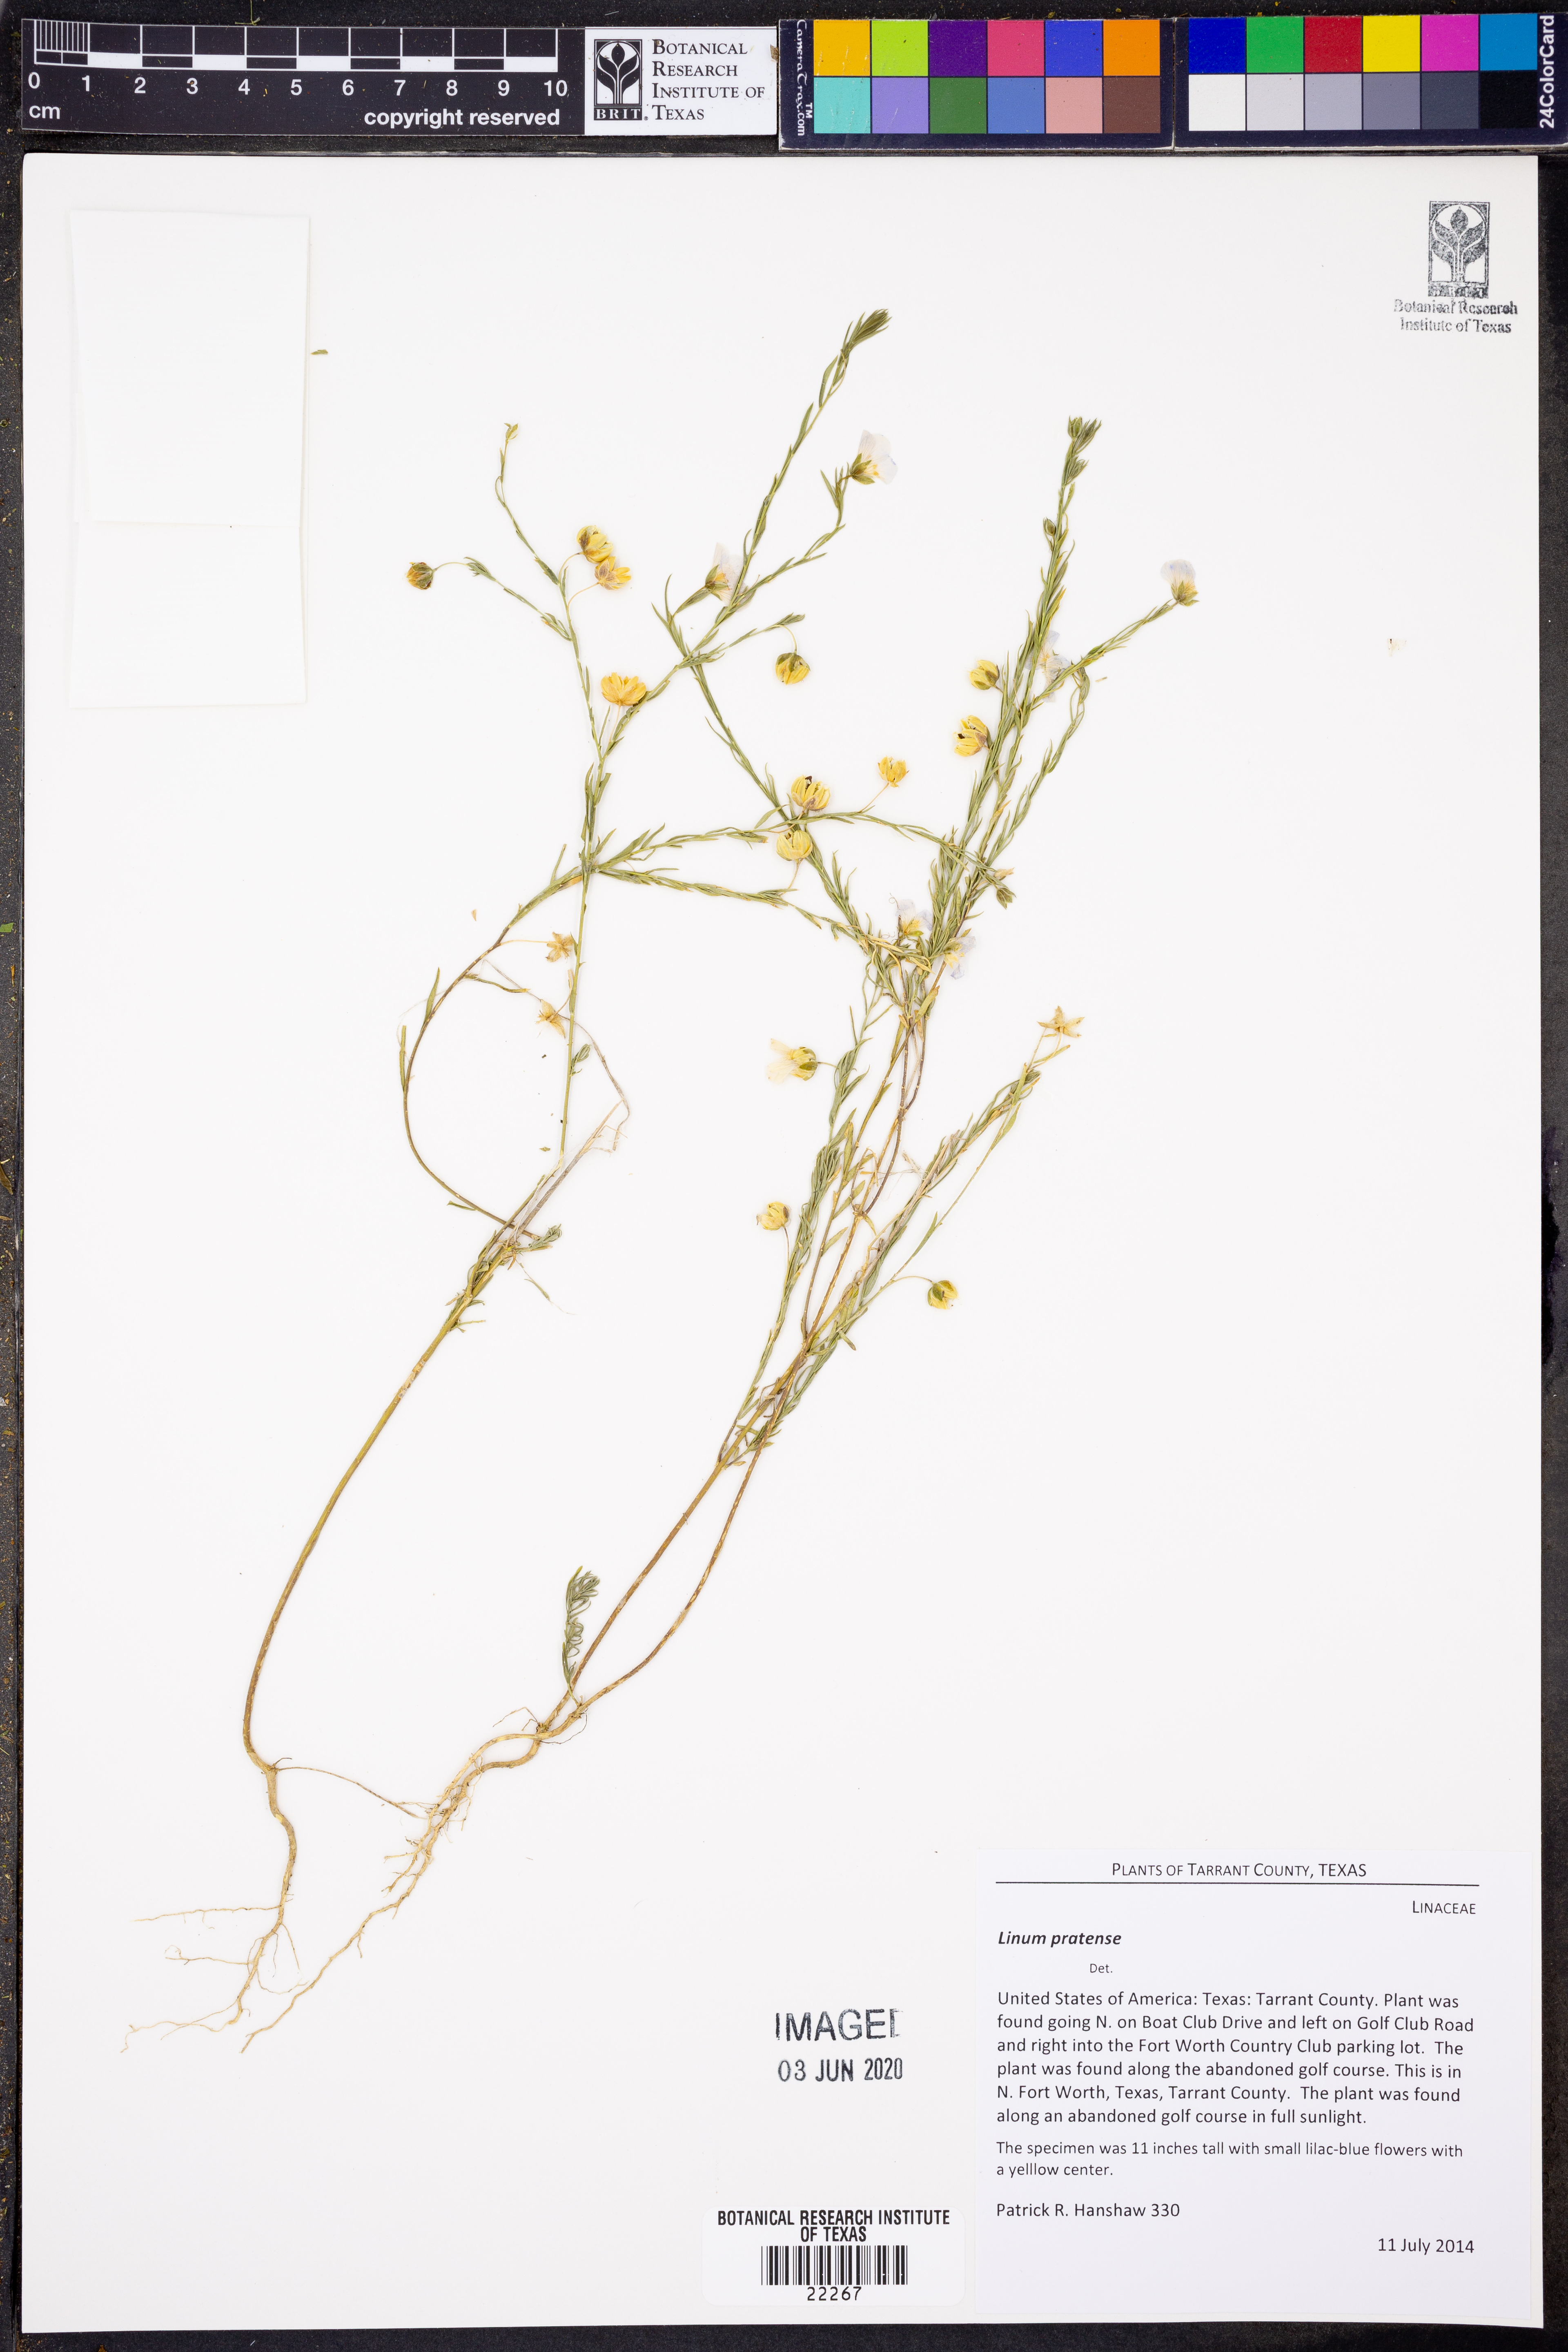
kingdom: Plantae
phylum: Tracheophyta
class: Magnoliopsida
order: Malpighiales
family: Linaceae
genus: Linum
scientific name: Linum pratense
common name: Norton's flax
